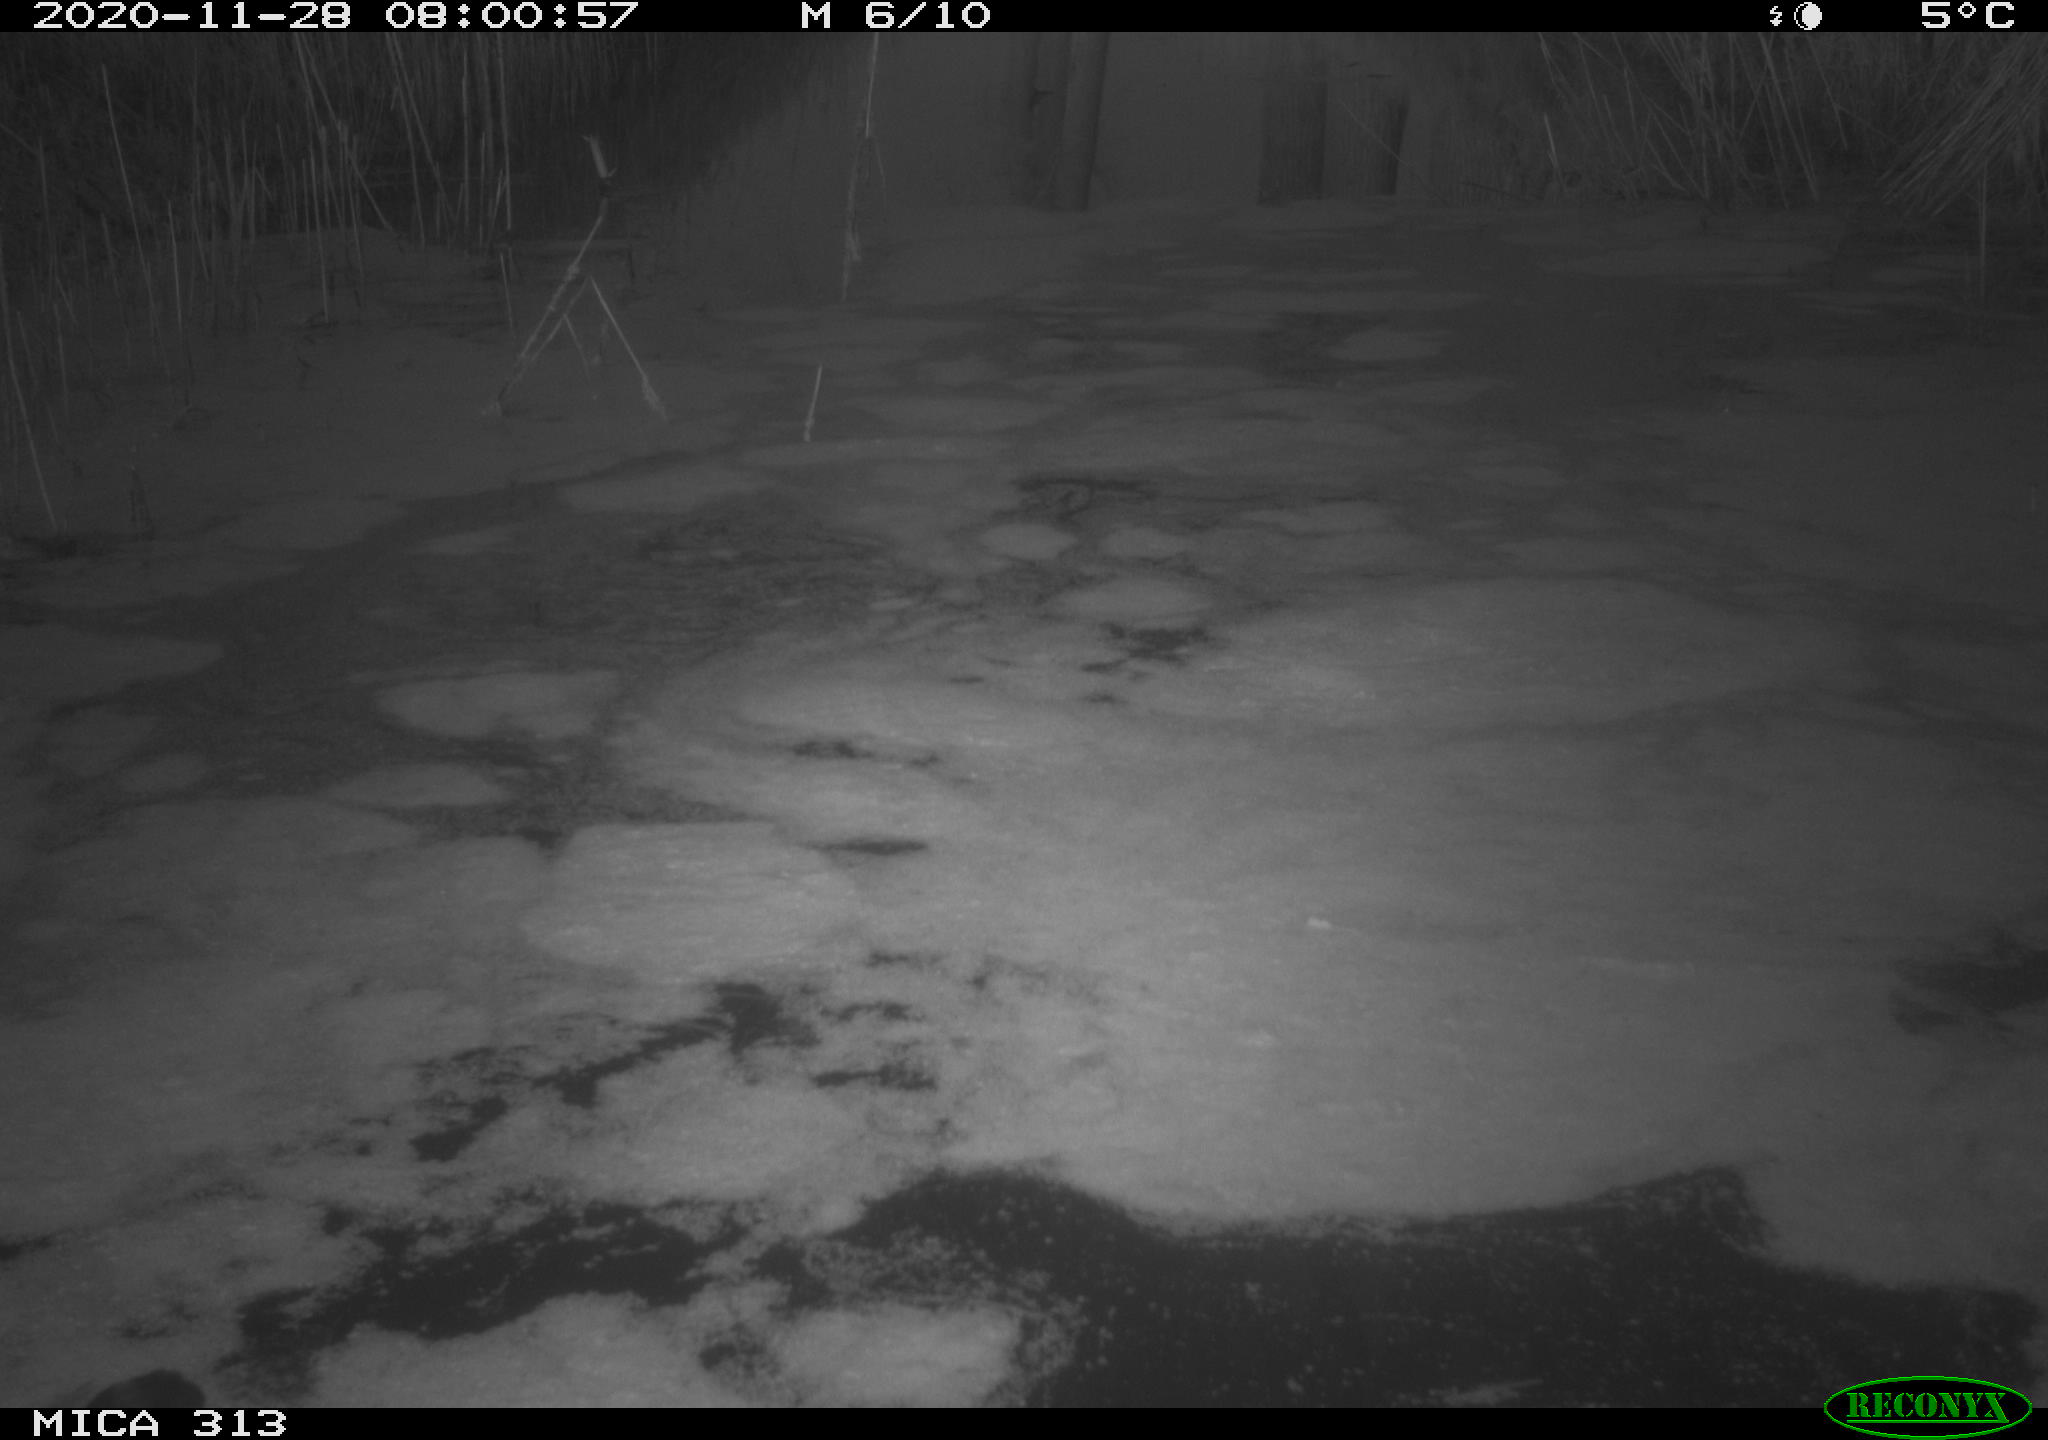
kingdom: Animalia
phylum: Chordata
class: Aves
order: Gruiformes
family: Rallidae
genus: Gallinula
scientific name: Gallinula chloropus
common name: Common moorhen
